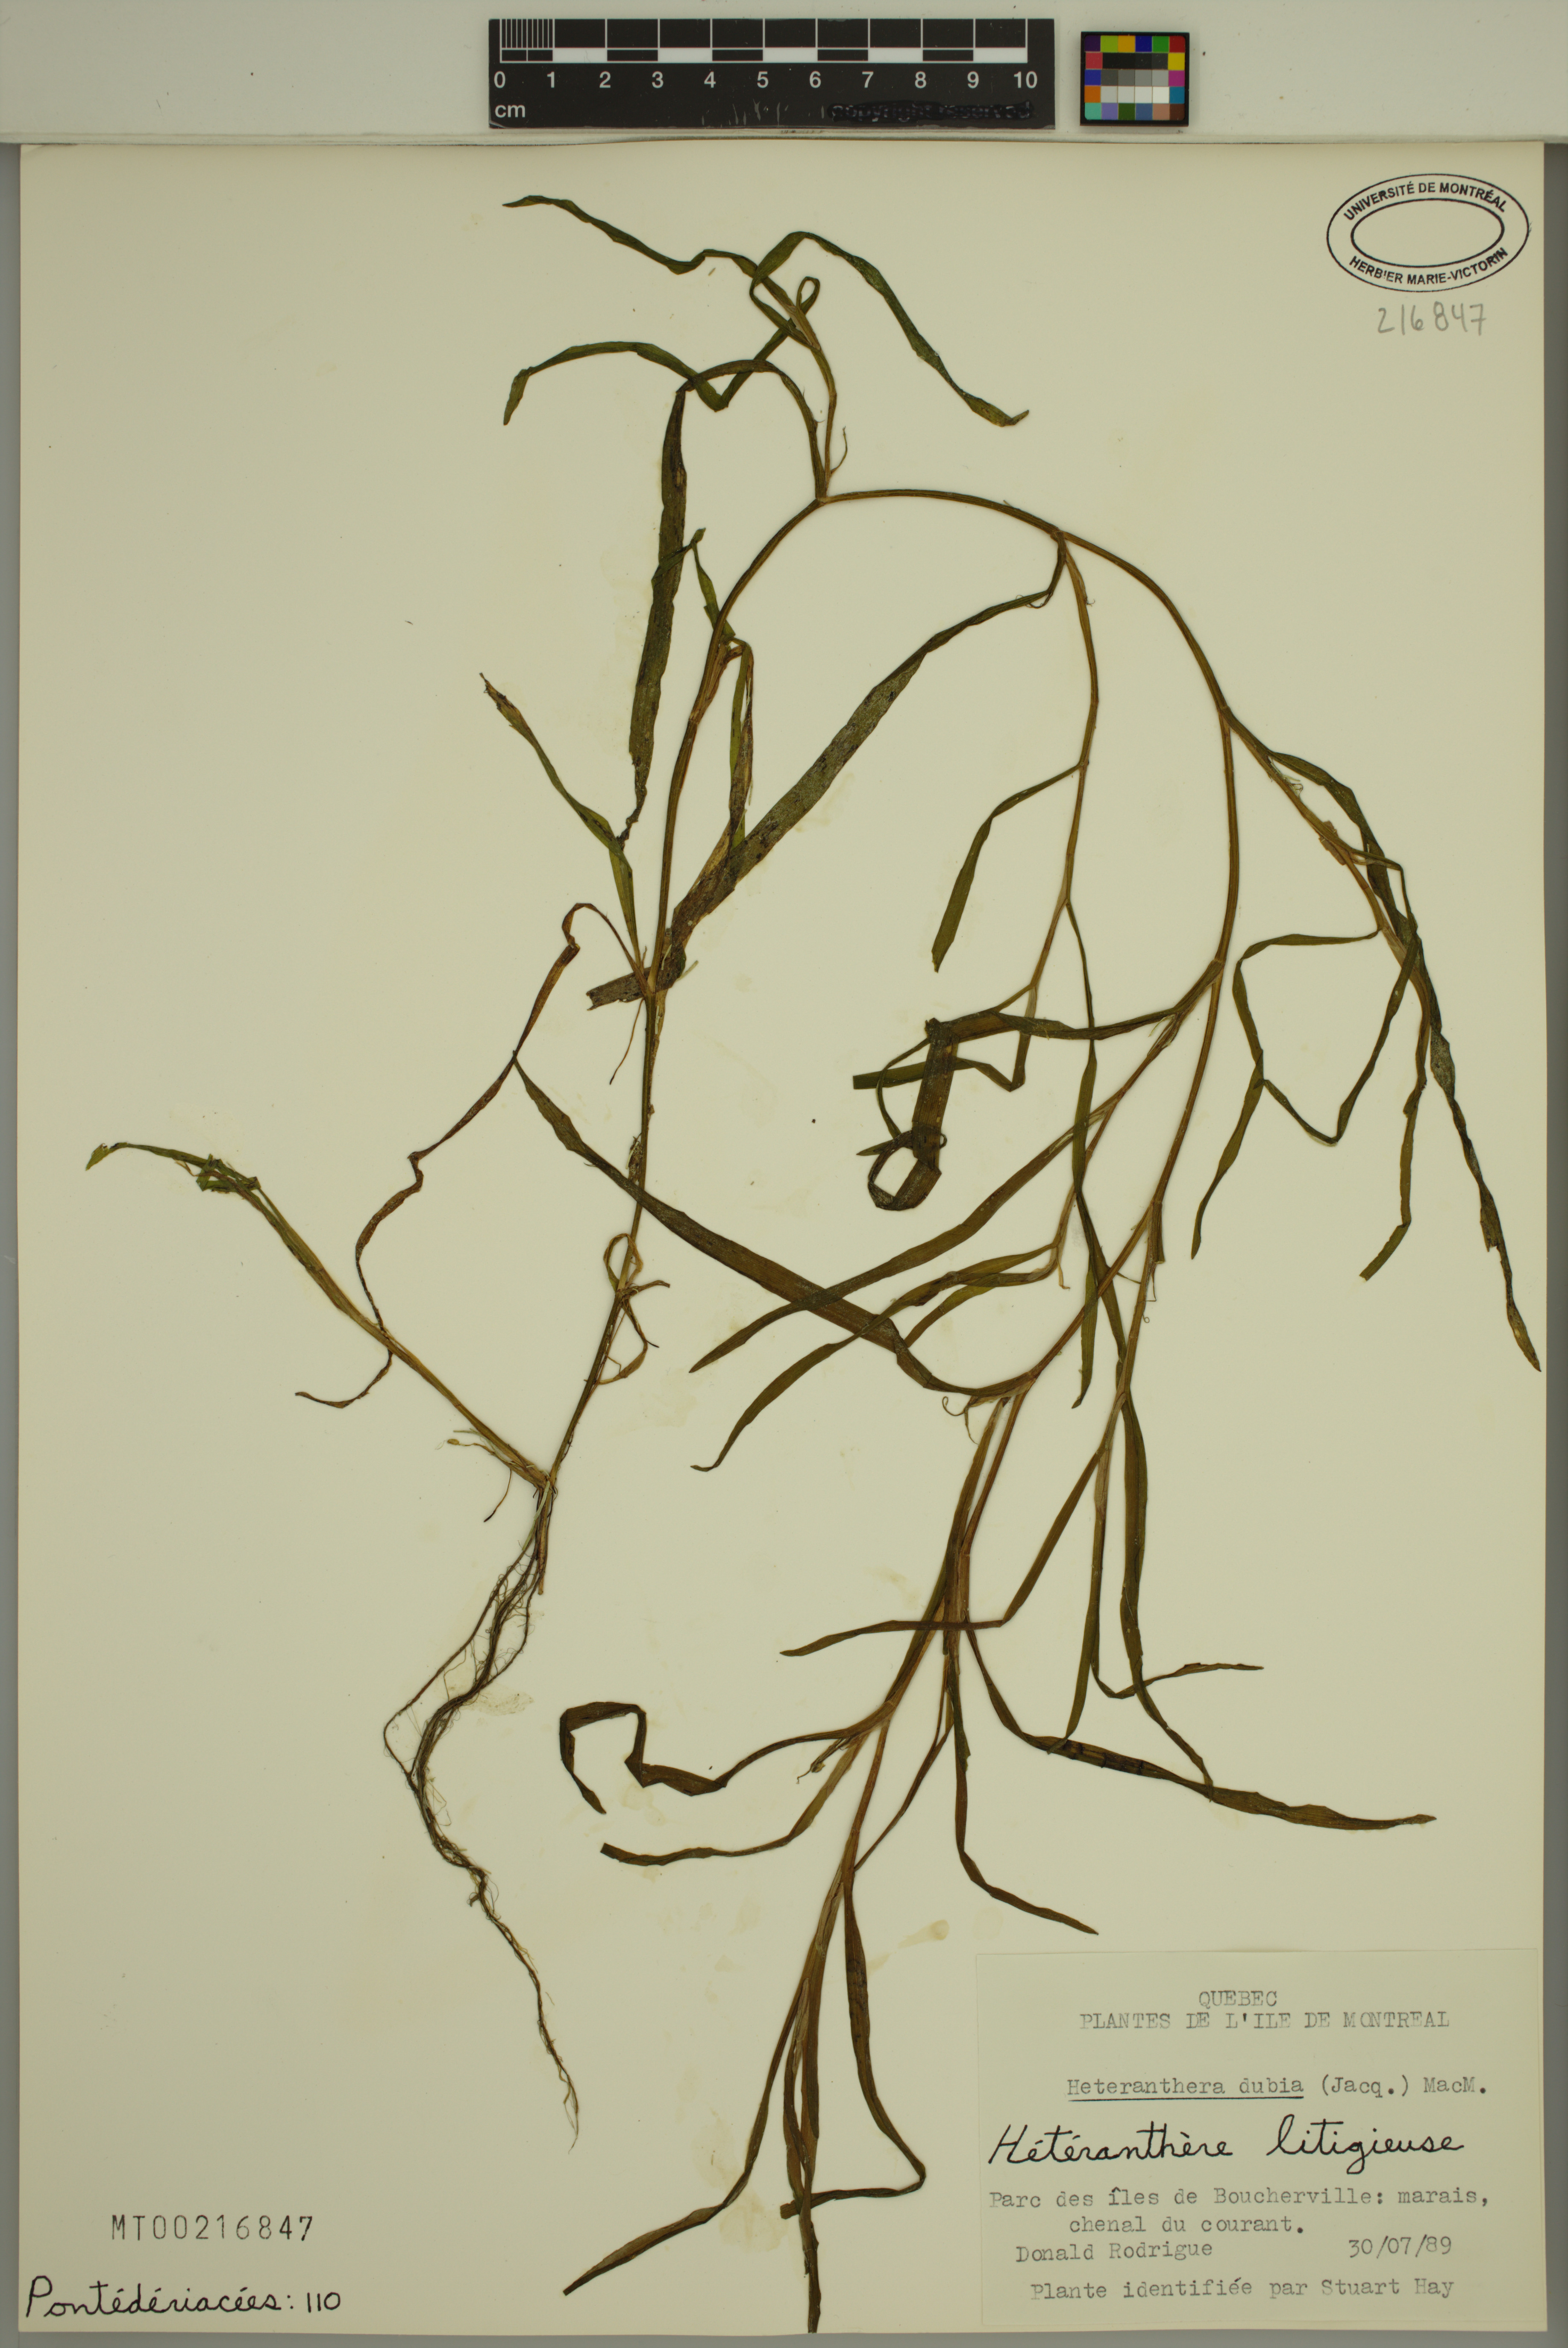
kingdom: Plantae
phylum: Tracheophyta
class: Liliopsida
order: Commelinales
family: Pontederiaceae
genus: Heteranthera
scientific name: Heteranthera dubia
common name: Grass-leaved mud plantain
